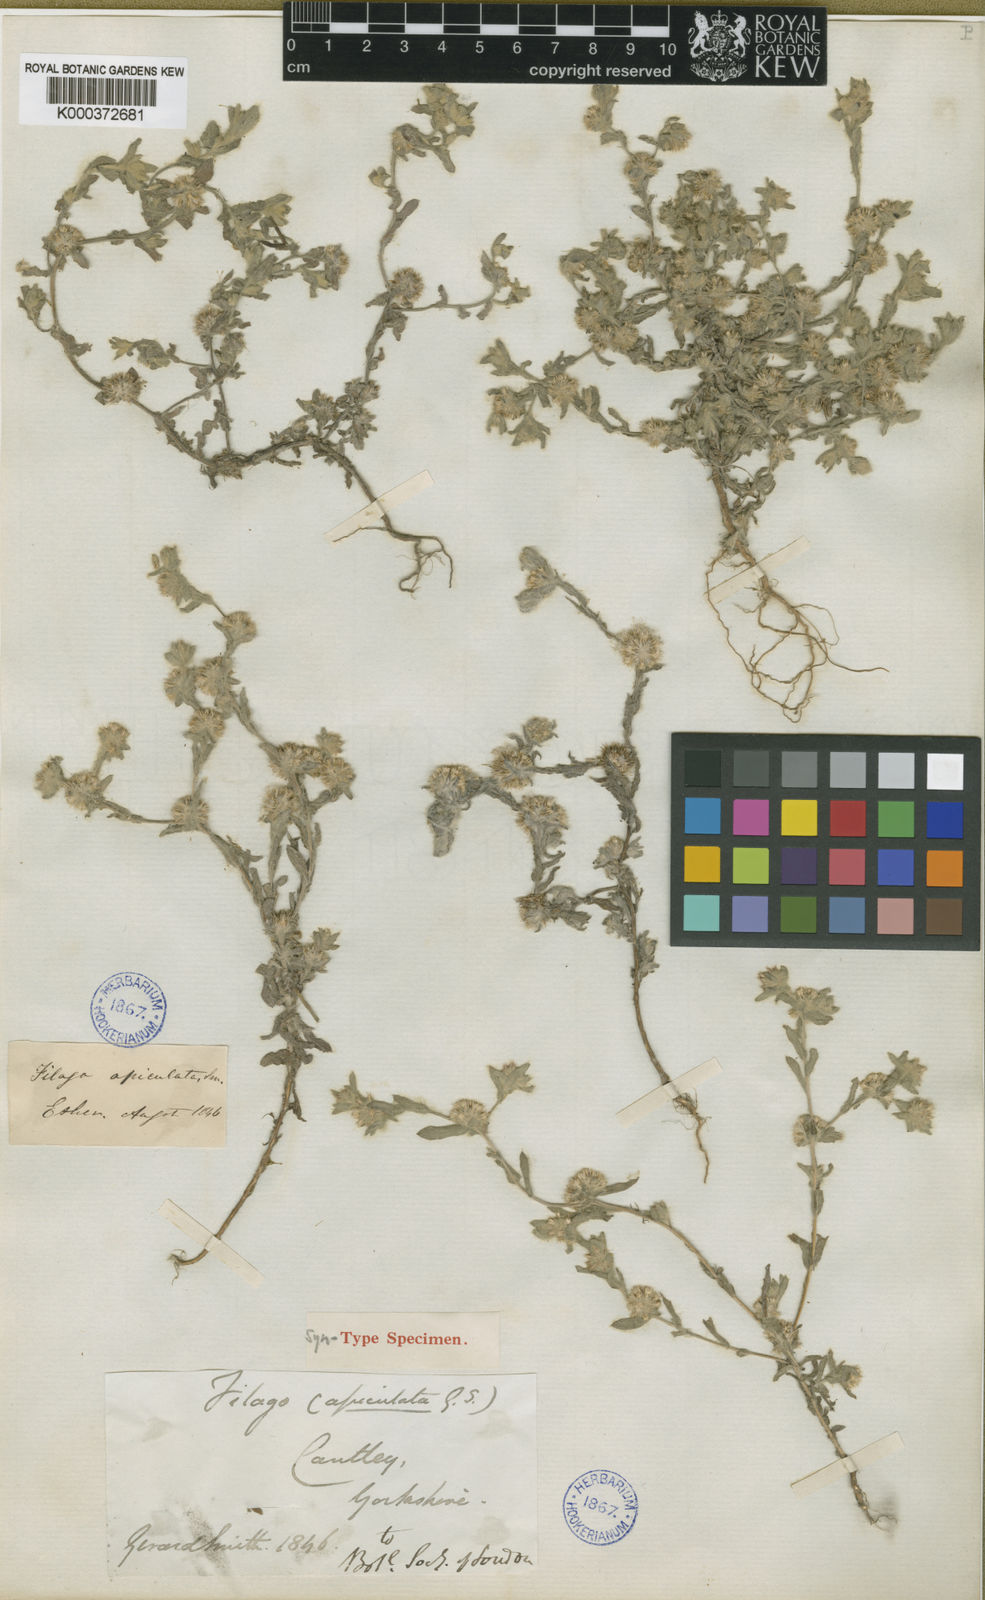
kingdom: Plantae
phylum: Tracheophyta
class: Magnoliopsida
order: Asterales
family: Asteraceae
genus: Filago
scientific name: Filago lutescens
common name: Red-tipped cudweed
